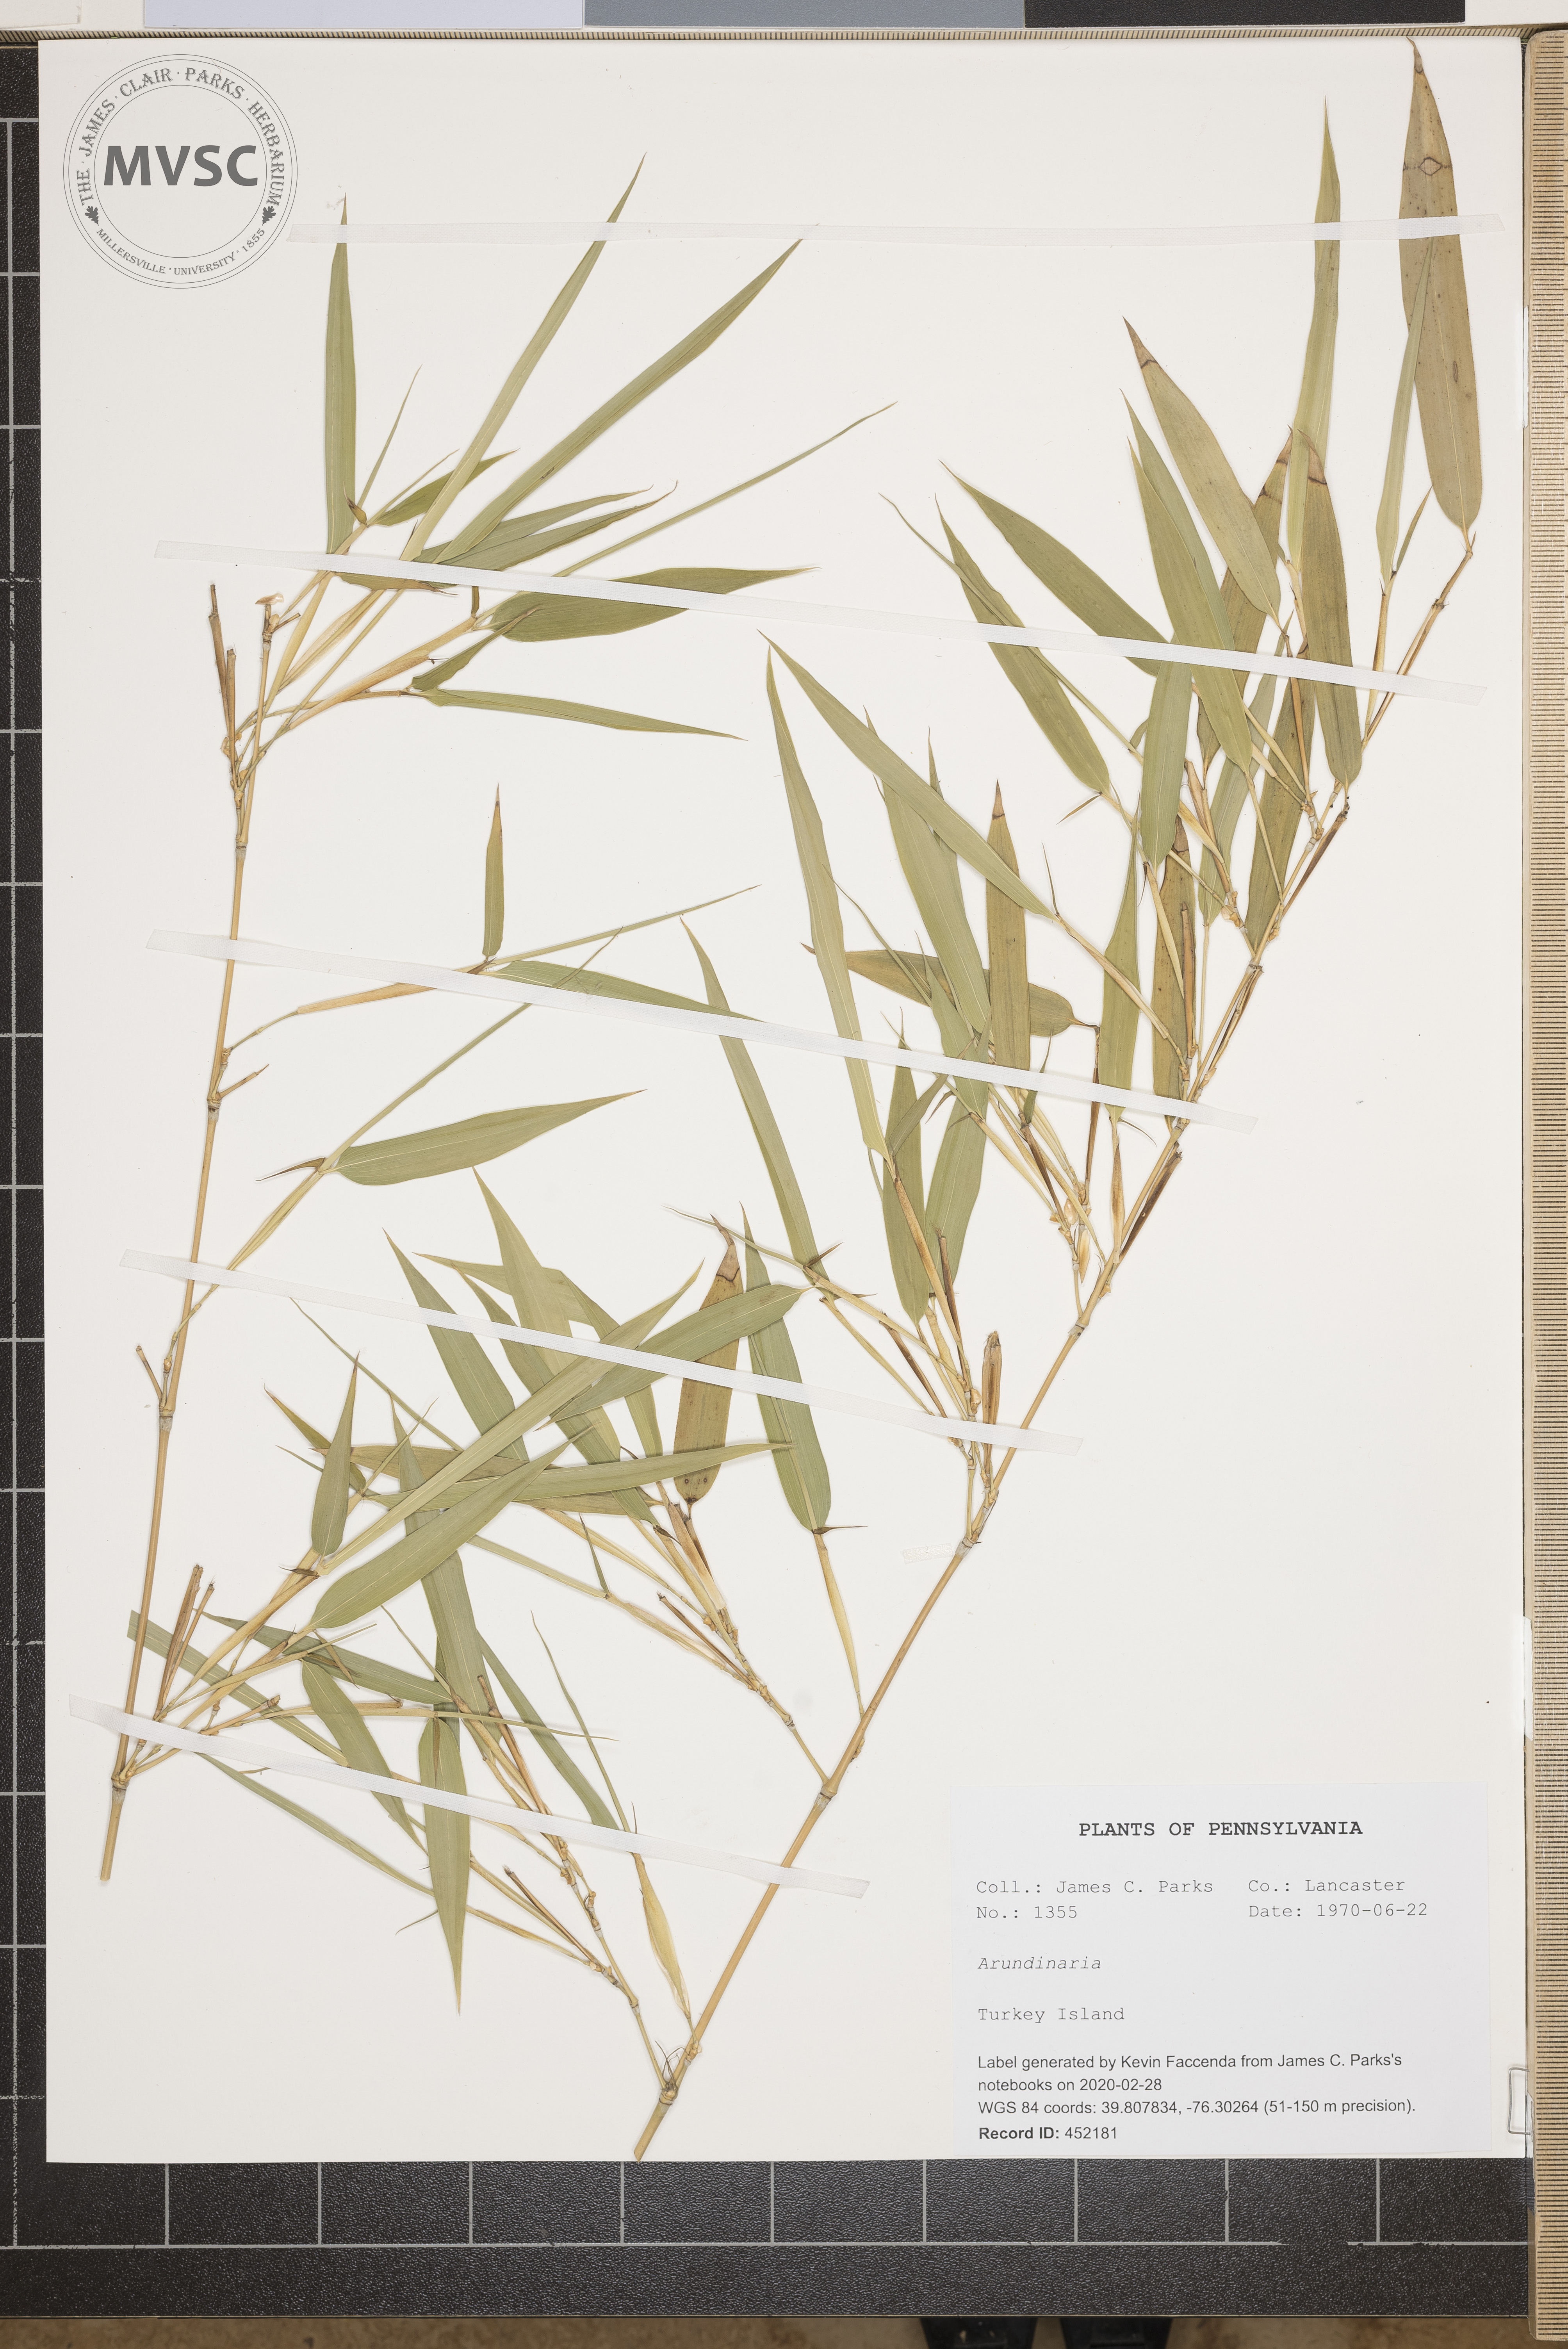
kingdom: Plantae
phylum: Tracheophyta
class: Liliopsida
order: Poales
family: Poaceae
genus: Arundinaria
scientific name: Arundinaria
